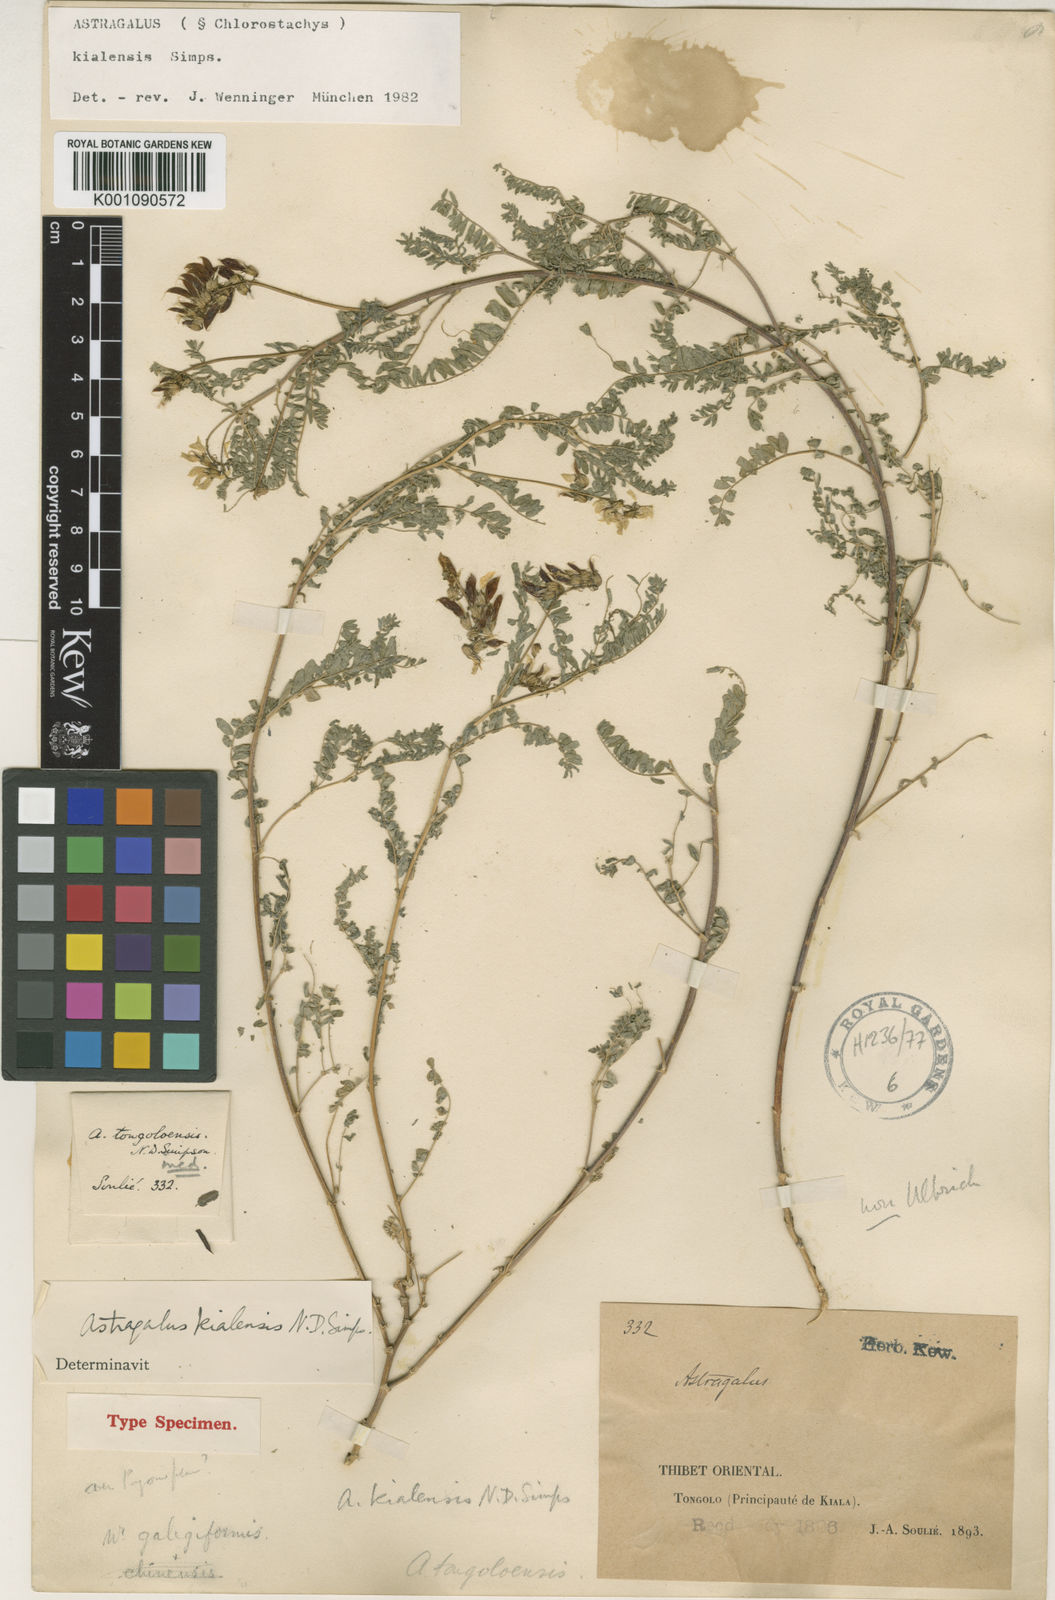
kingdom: Plantae
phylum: Tracheophyta
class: Magnoliopsida
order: Fabales
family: Fabaceae
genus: Astragalus
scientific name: Astragalus
